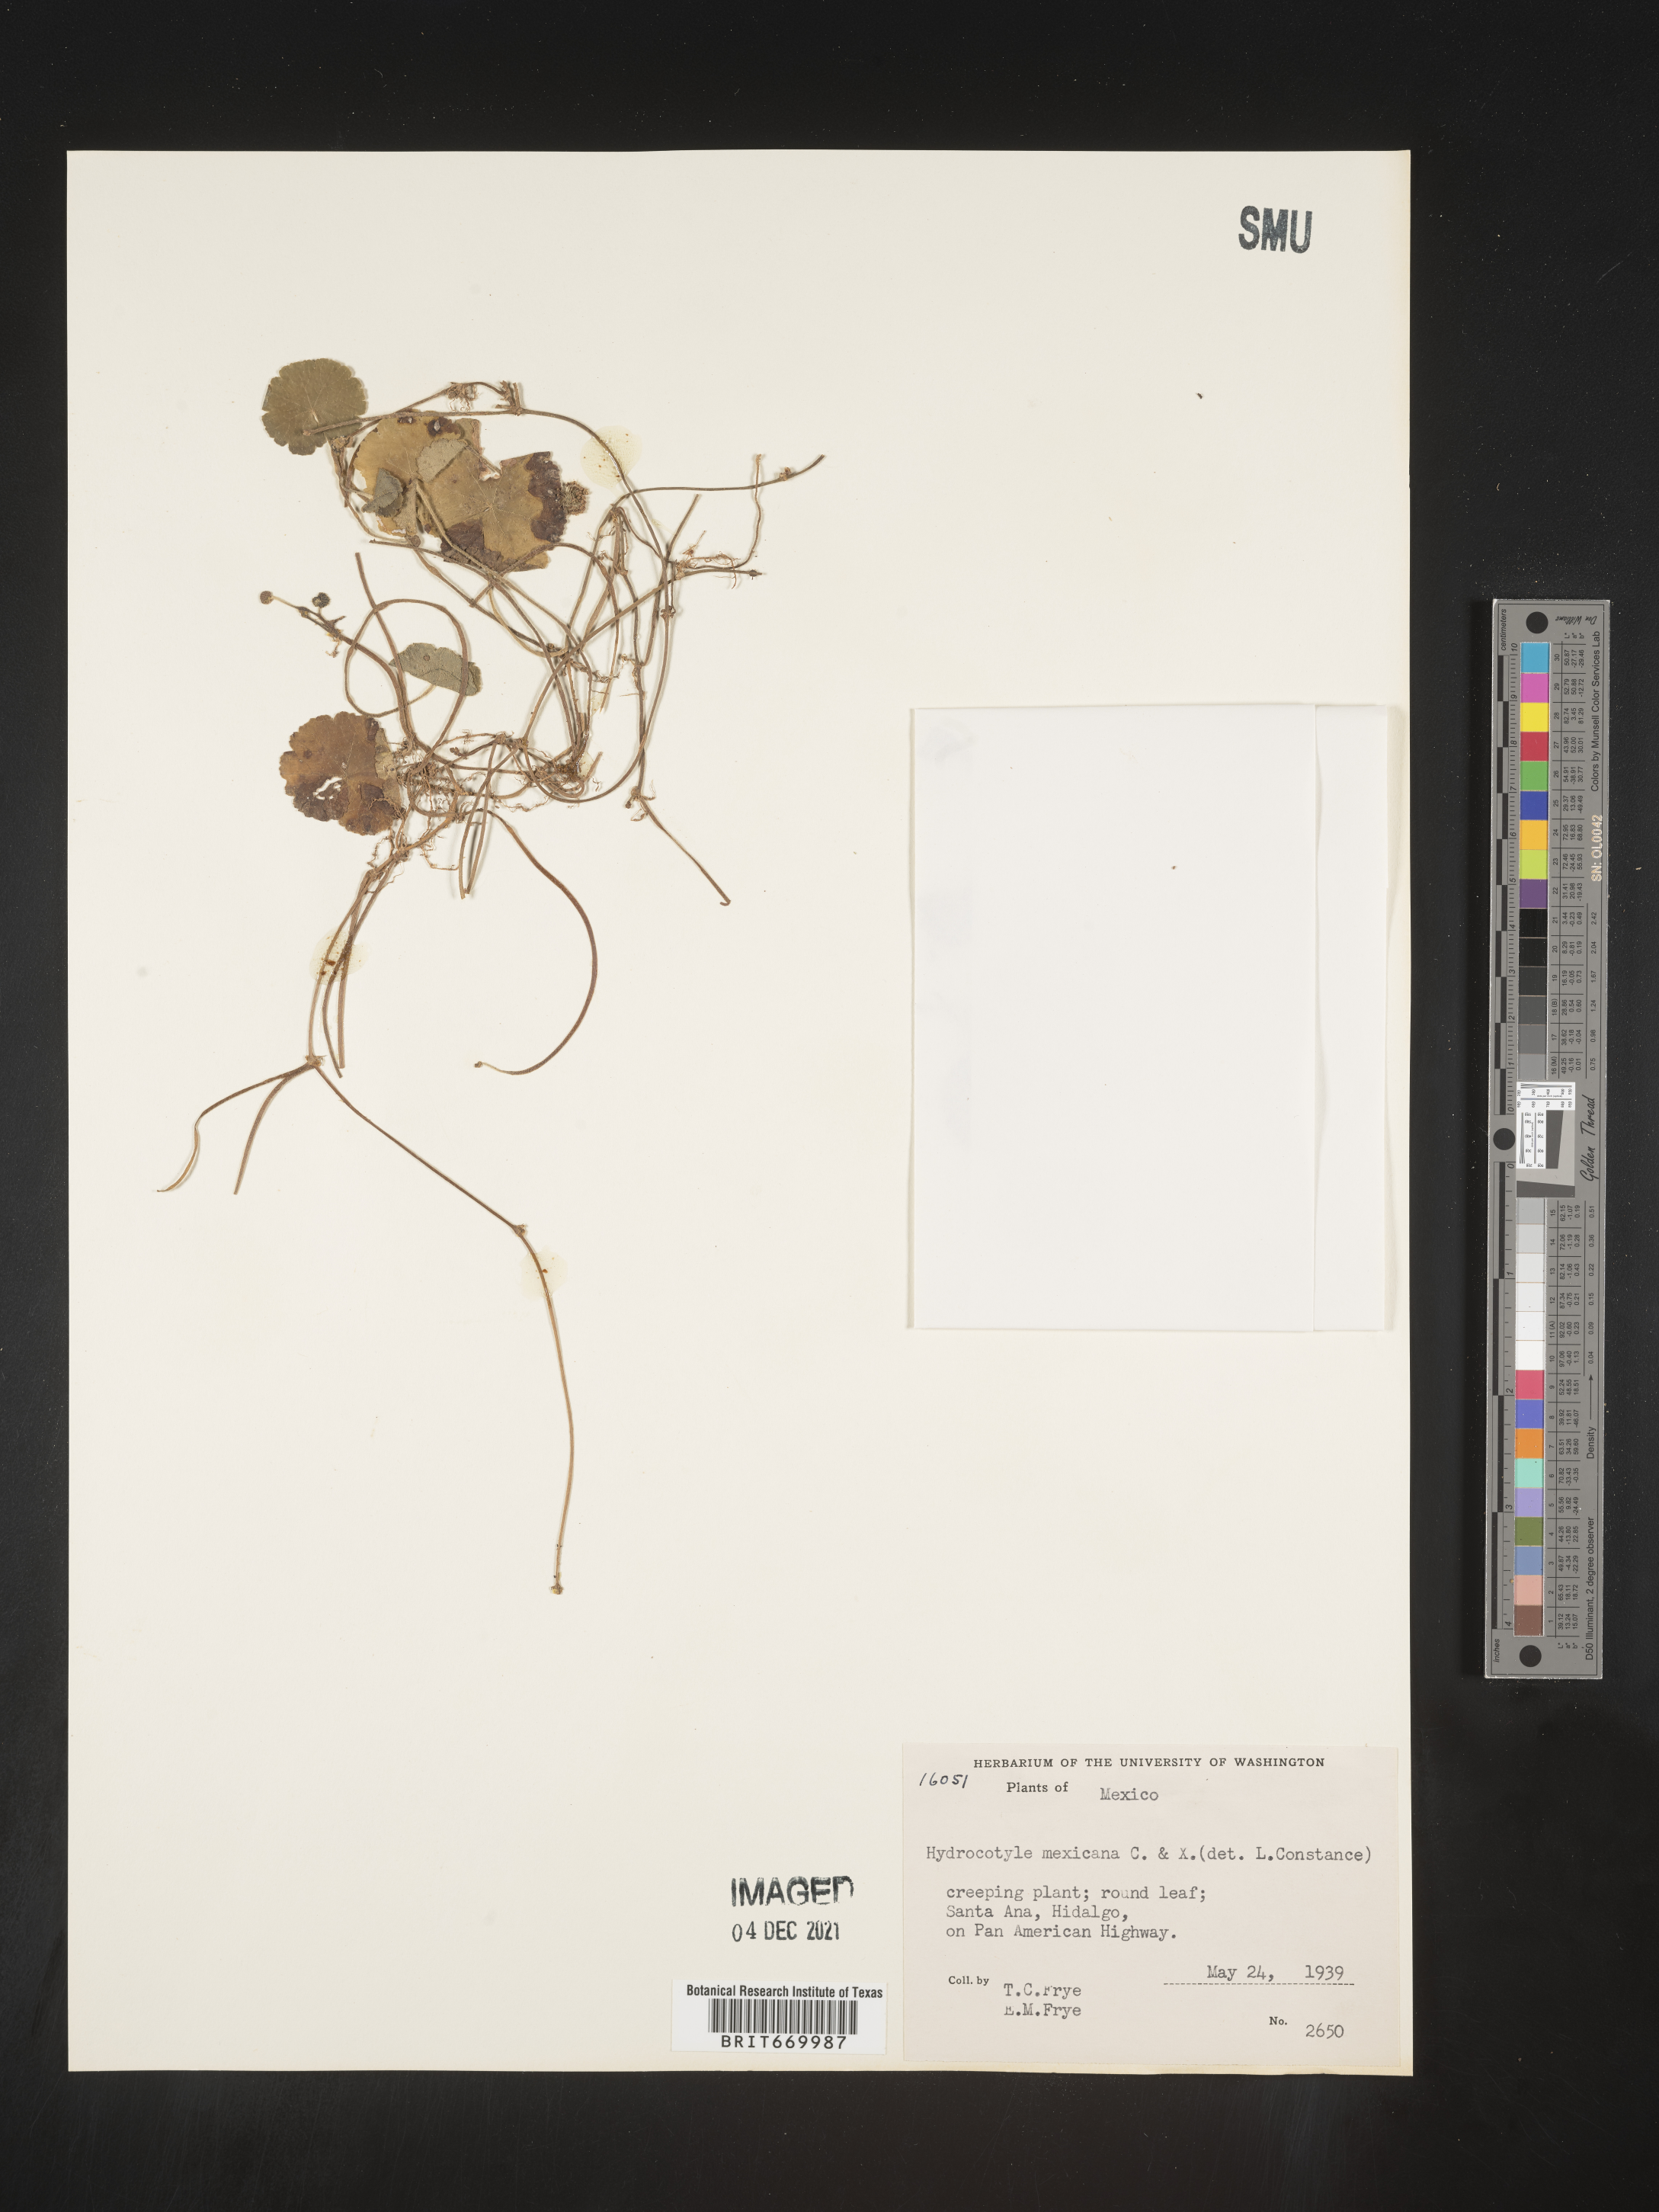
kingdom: Plantae
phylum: Tracheophyta
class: Magnoliopsida
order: Apiales
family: Araliaceae
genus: Hydrocotyle
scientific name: Hydrocotyle
